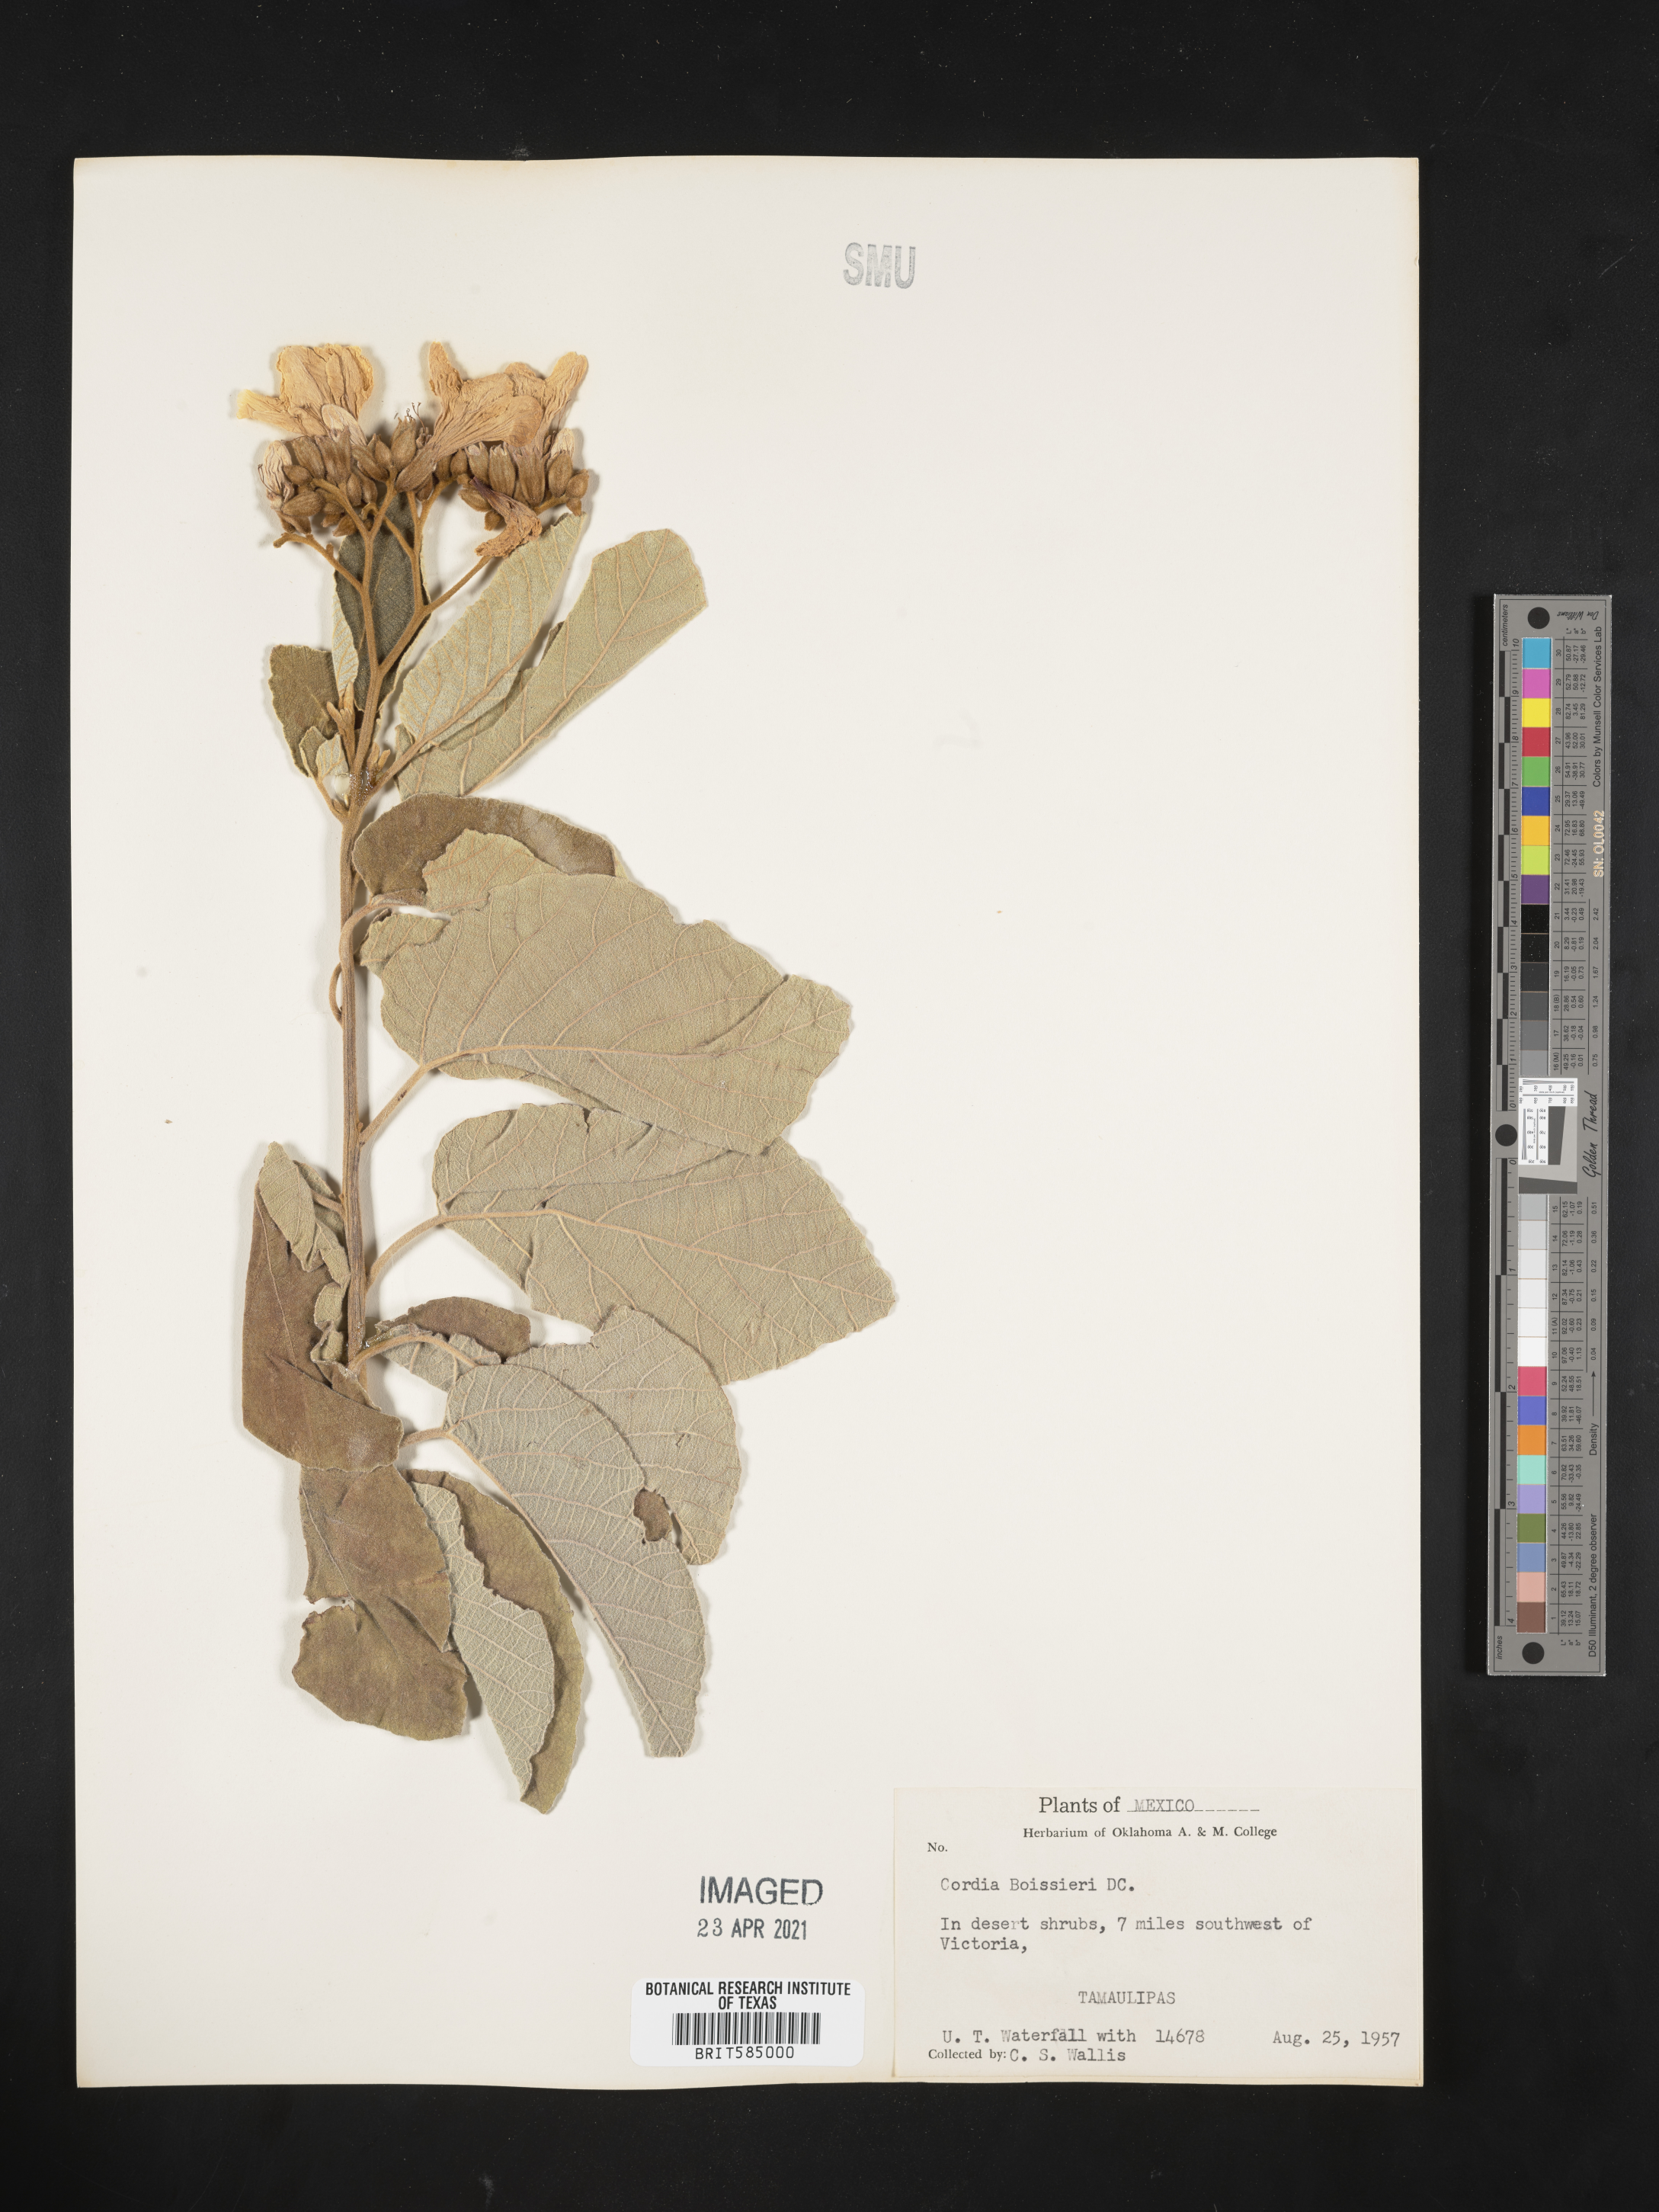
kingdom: Plantae
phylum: Tracheophyta
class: Magnoliopsida
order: Boraginales
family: Cordiaceae
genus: Cordia
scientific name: Cordia boissieri
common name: Mexican-olive
